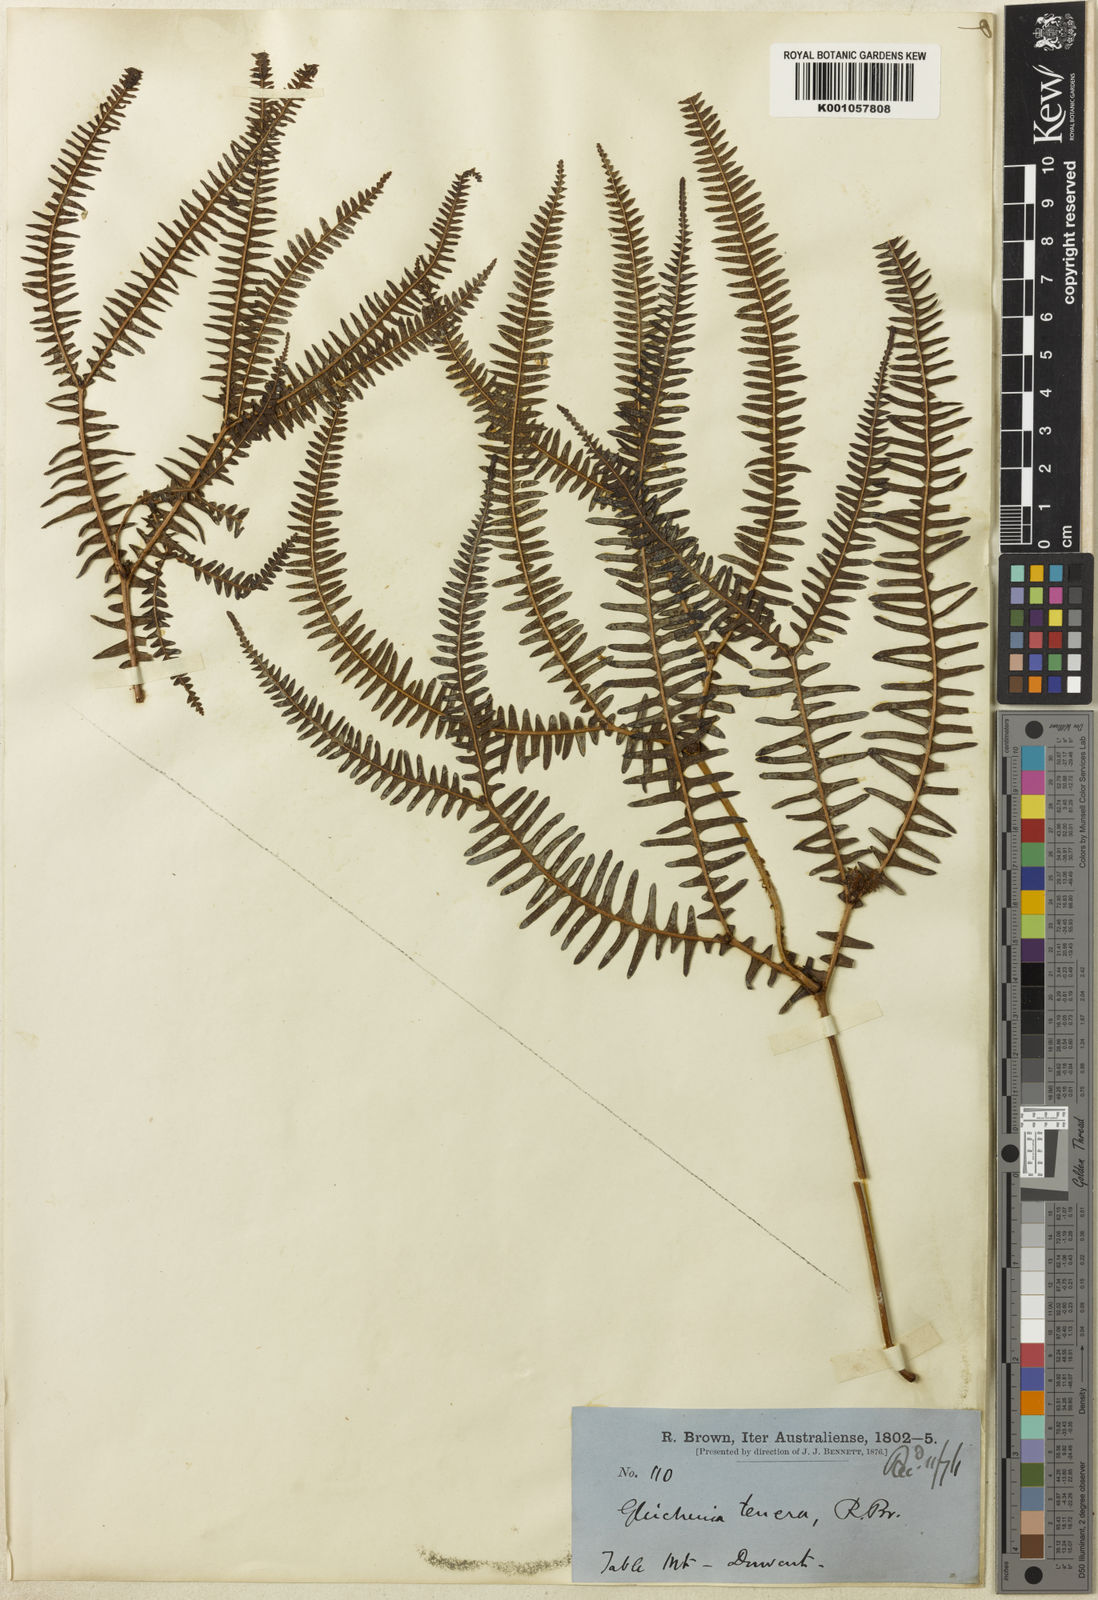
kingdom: Plantae
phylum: Tracheophyta
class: Polypodiopsida
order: Gleicheniales
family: Gleicheniaceae
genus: Sticherus
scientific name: Sticherus tener
